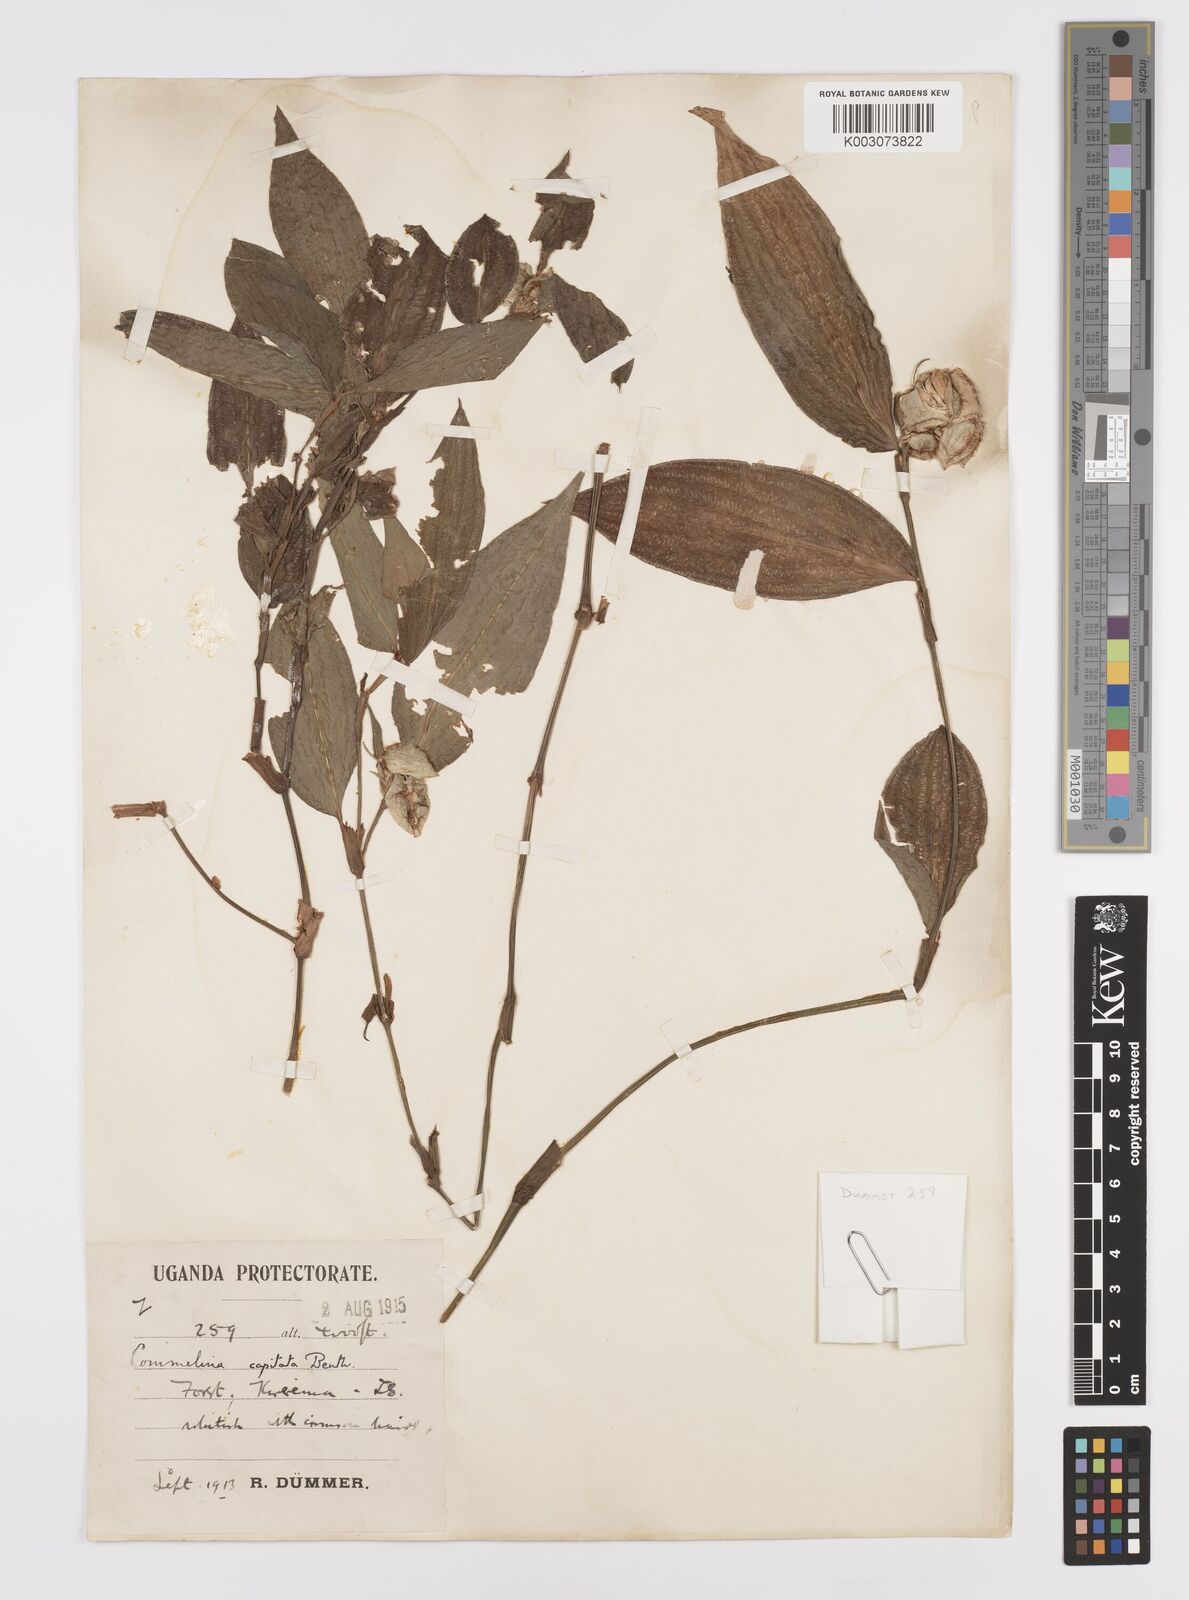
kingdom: Plantae
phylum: Tracheophyta
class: Liliopsida
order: Commelinales
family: Commelinaceae
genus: Commelina
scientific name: Commelina capitata
